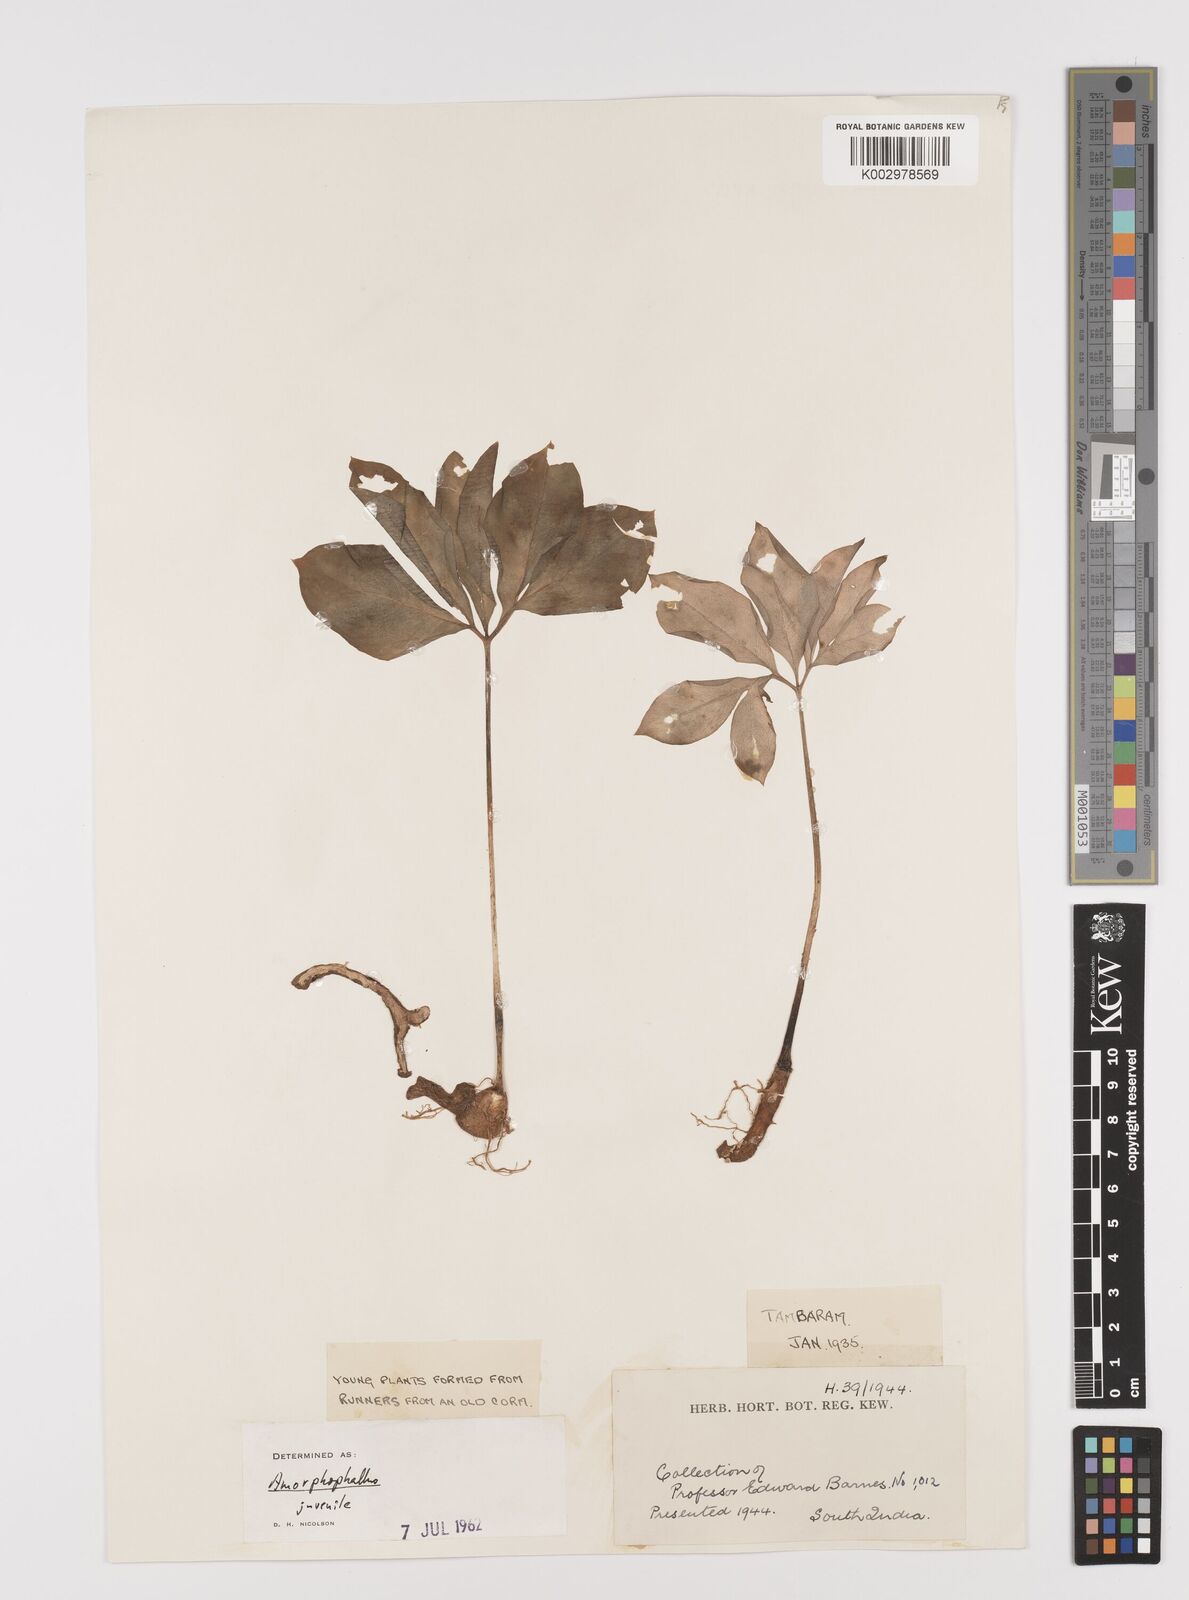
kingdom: Plantae
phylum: Tracheophyta
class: Liliopsida
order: Alismatales
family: Araceae
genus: Amorphophallus
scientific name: Amorphophallus
